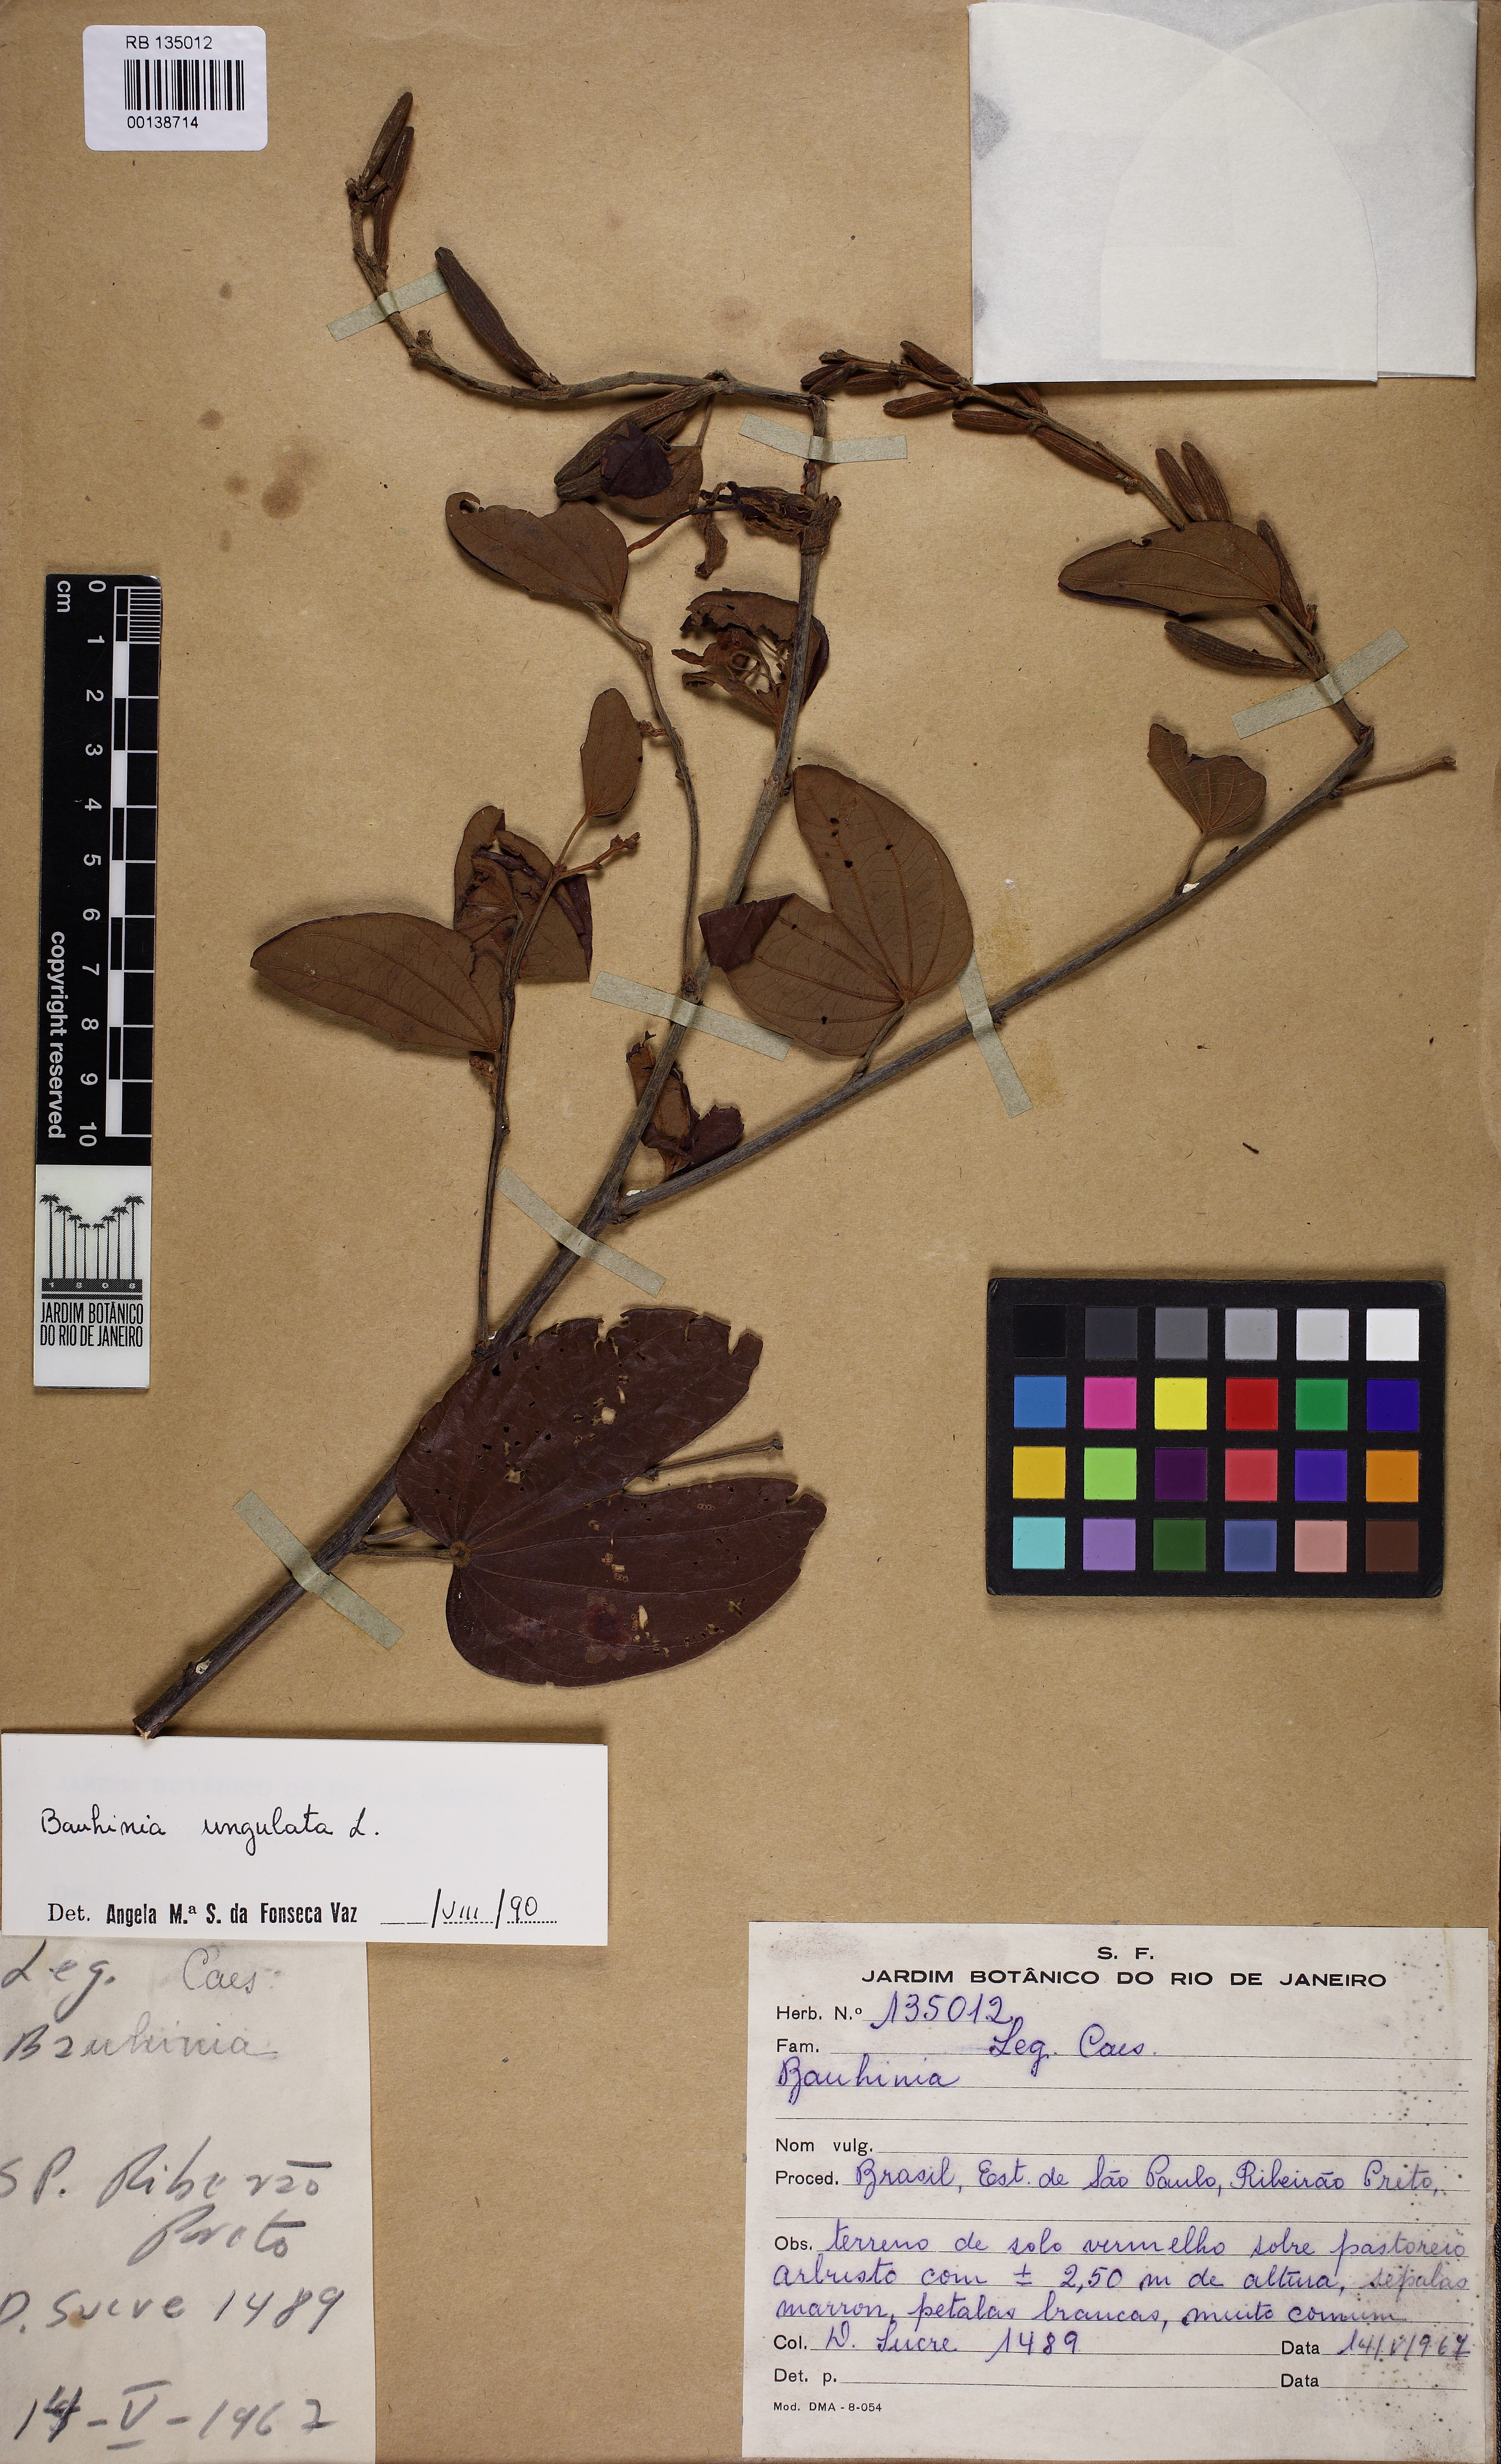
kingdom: Plantae
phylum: Tracheophyta
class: Magnoliopsida
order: Fabales
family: Fabaceae
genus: Bauhinia
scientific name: Bauhinia ungulata
